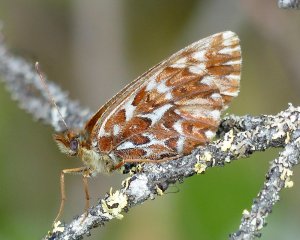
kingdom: Animalia
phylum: Arthropoda
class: Insecta
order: Lepidoptera
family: Nymphalidae
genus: Boloria
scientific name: Boloria freija
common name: Freija Fritillary
